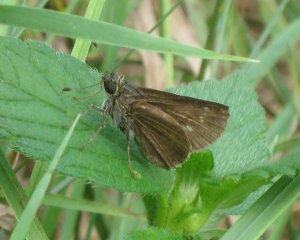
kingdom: Animalia
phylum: Arthropoda
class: Insecta
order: Lepidoptera
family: Hesperiidae
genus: Euphyes
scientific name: Euphyes vestris
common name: Dun Skipper
